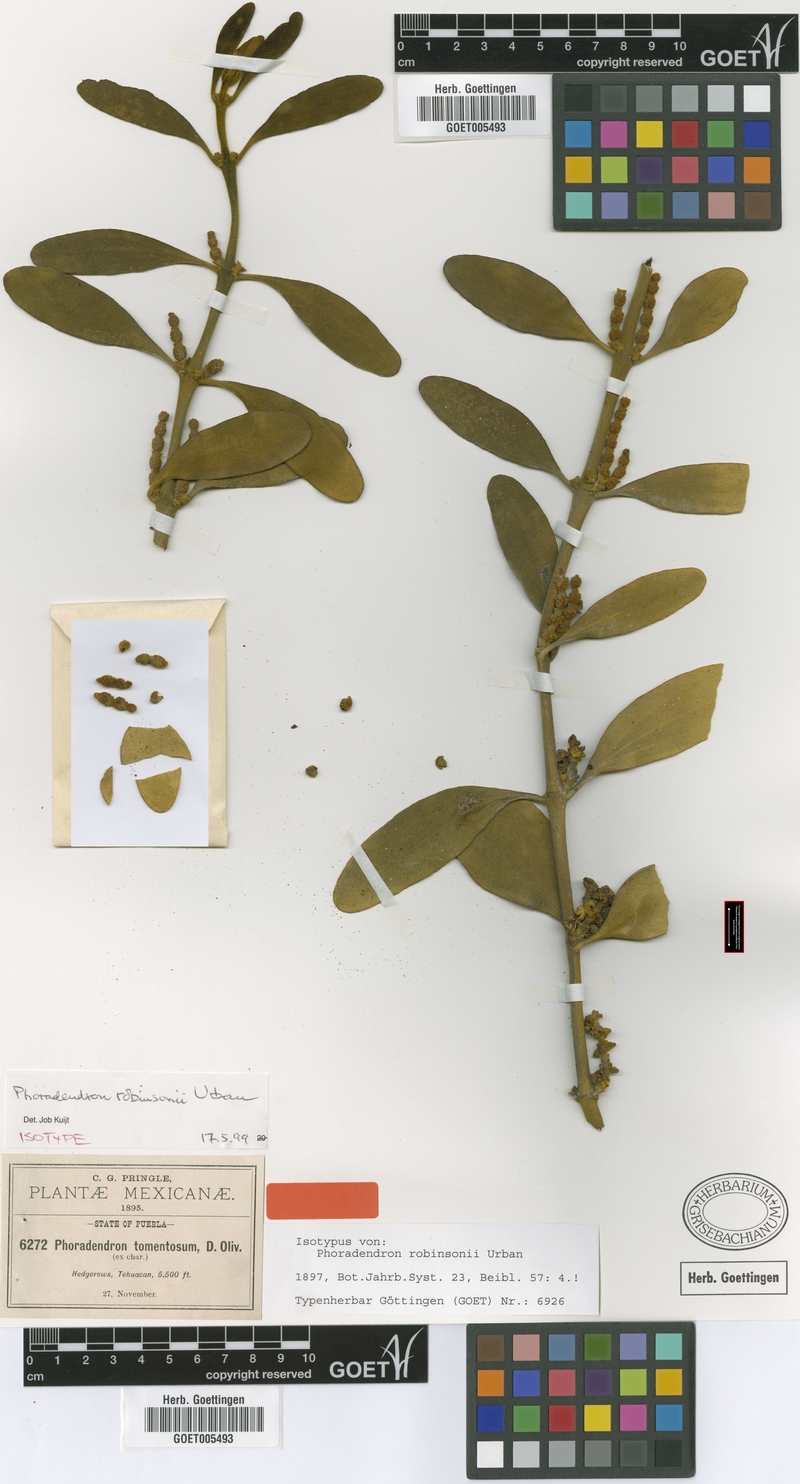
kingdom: Plantae
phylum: Tracheophyta
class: Magnoliopsida
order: Santalales
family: Viscaceae
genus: Phoradendron
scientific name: Phoradendron robinsonii
